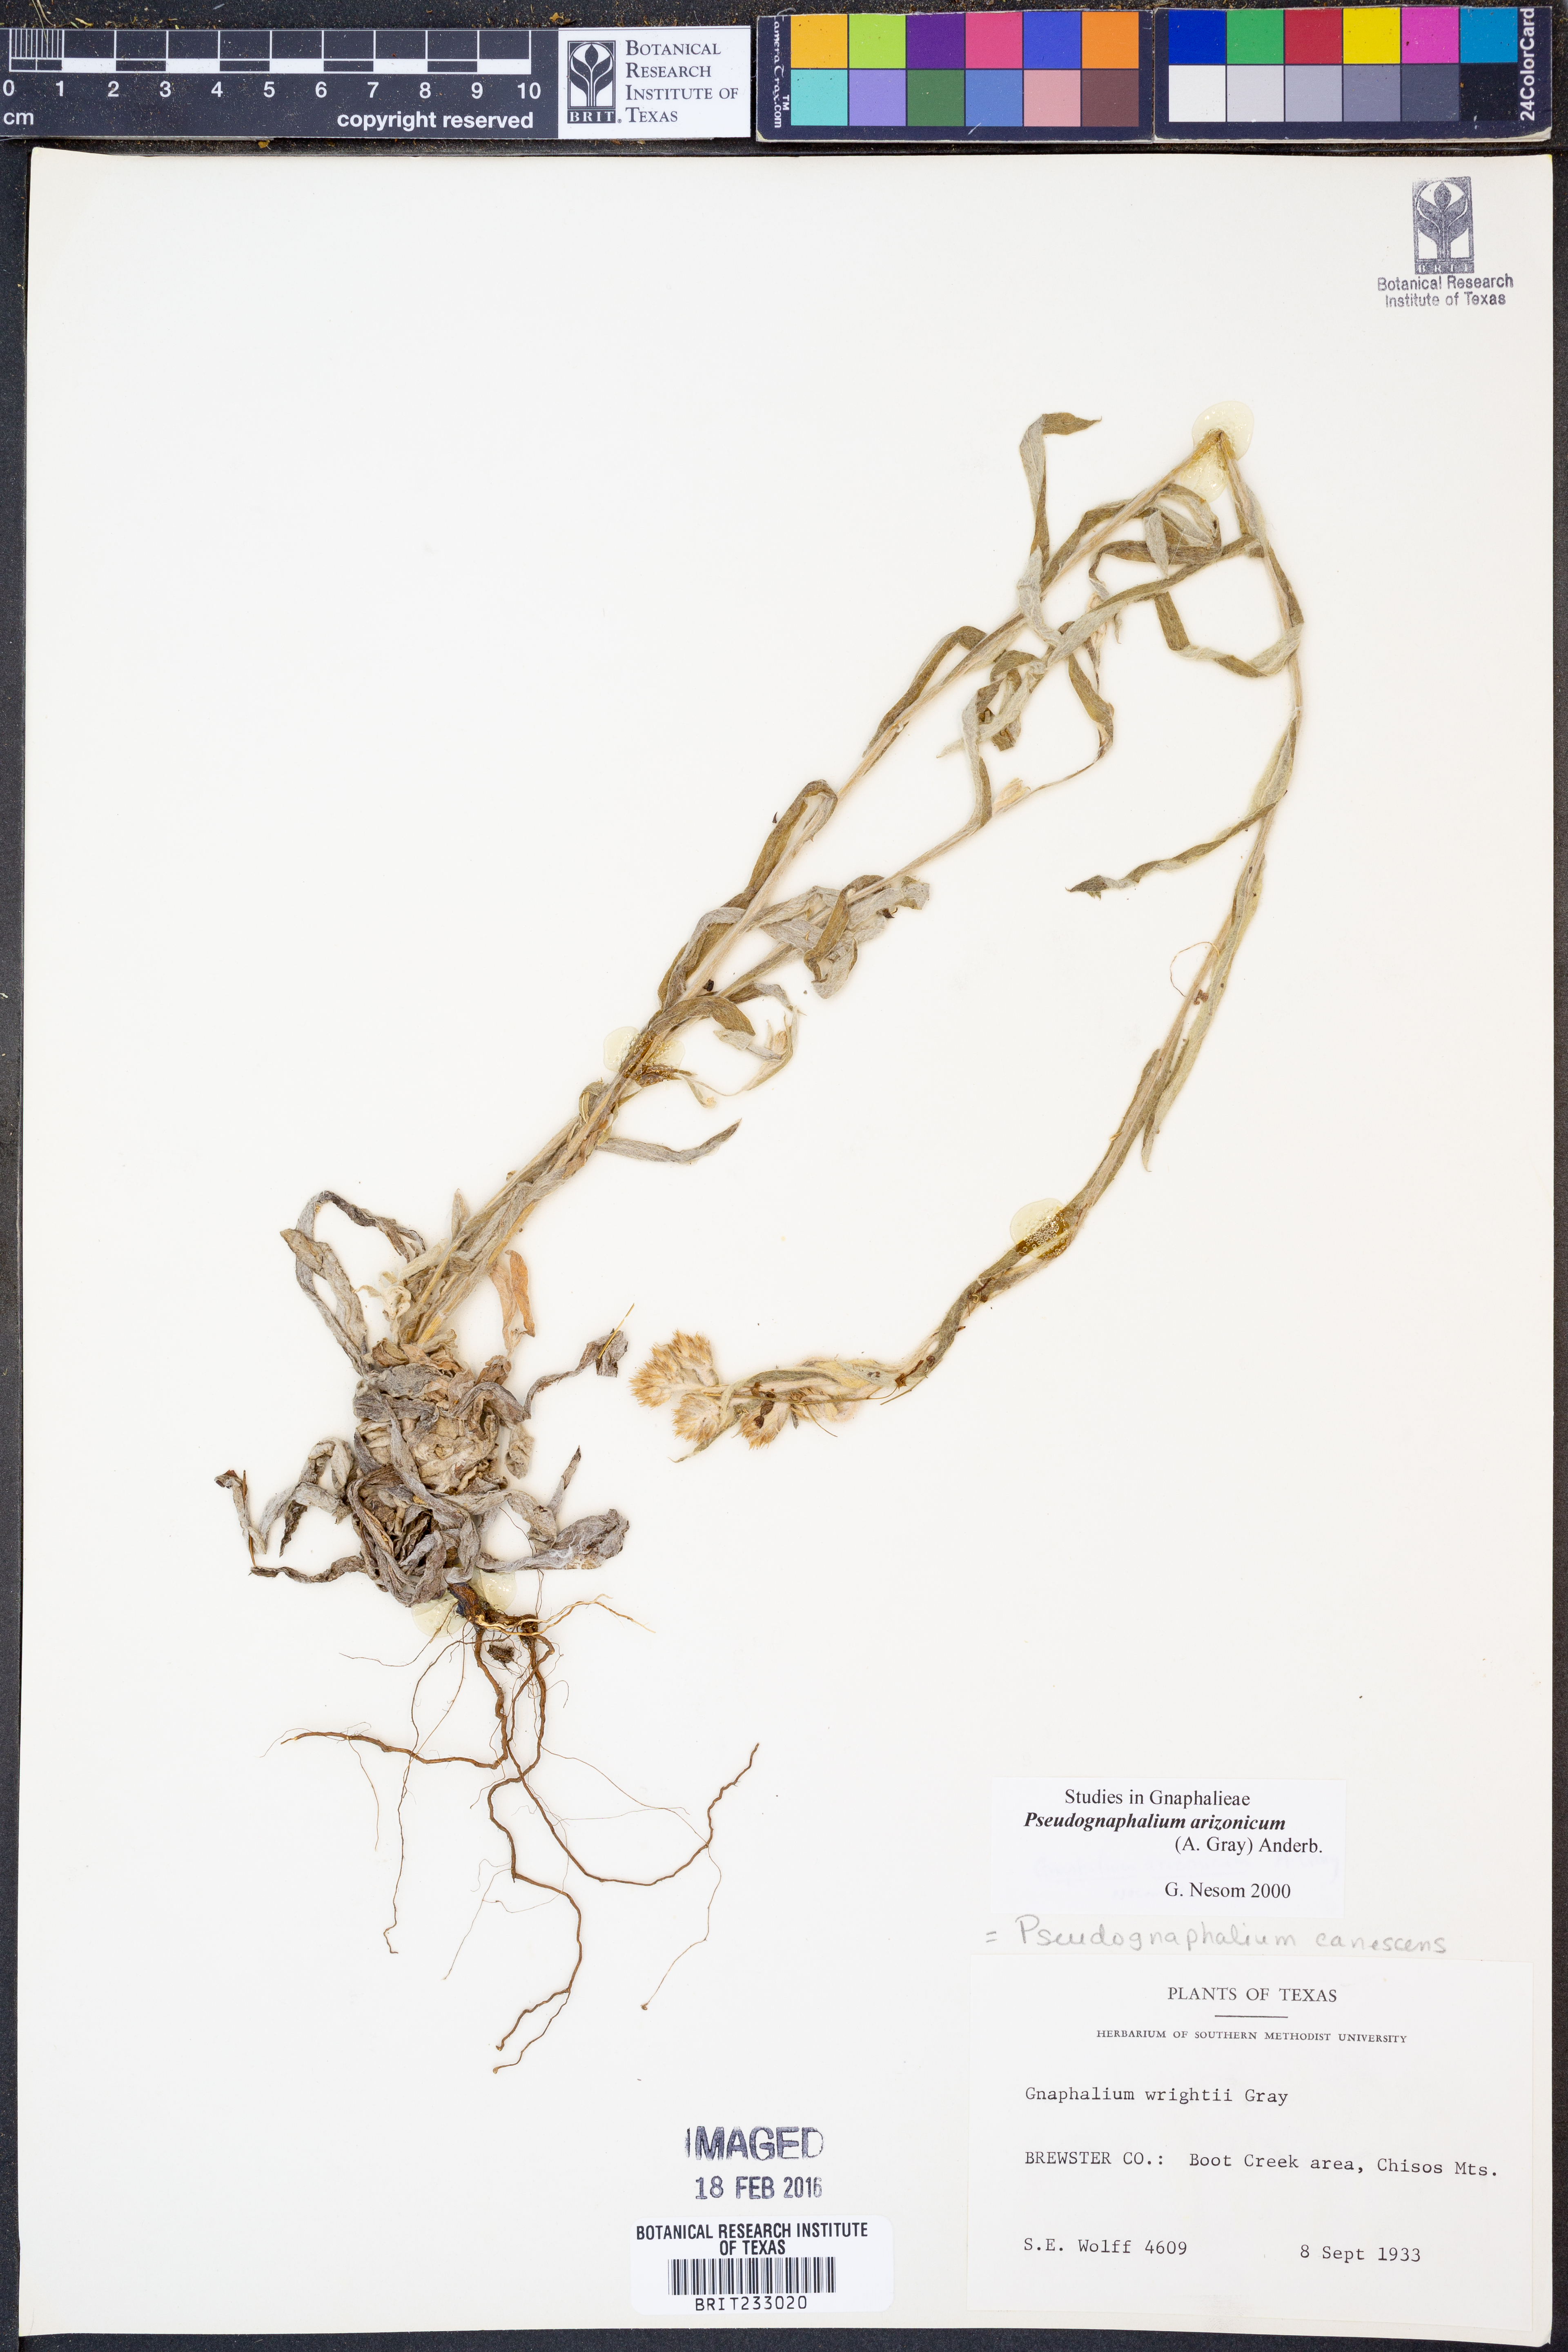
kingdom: Plantae
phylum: Tracheophyta
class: Magnoliopsida
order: Asterales
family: Asteraceae
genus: Pseudognaphalium
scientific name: Pseudognaphalium arizonicum
